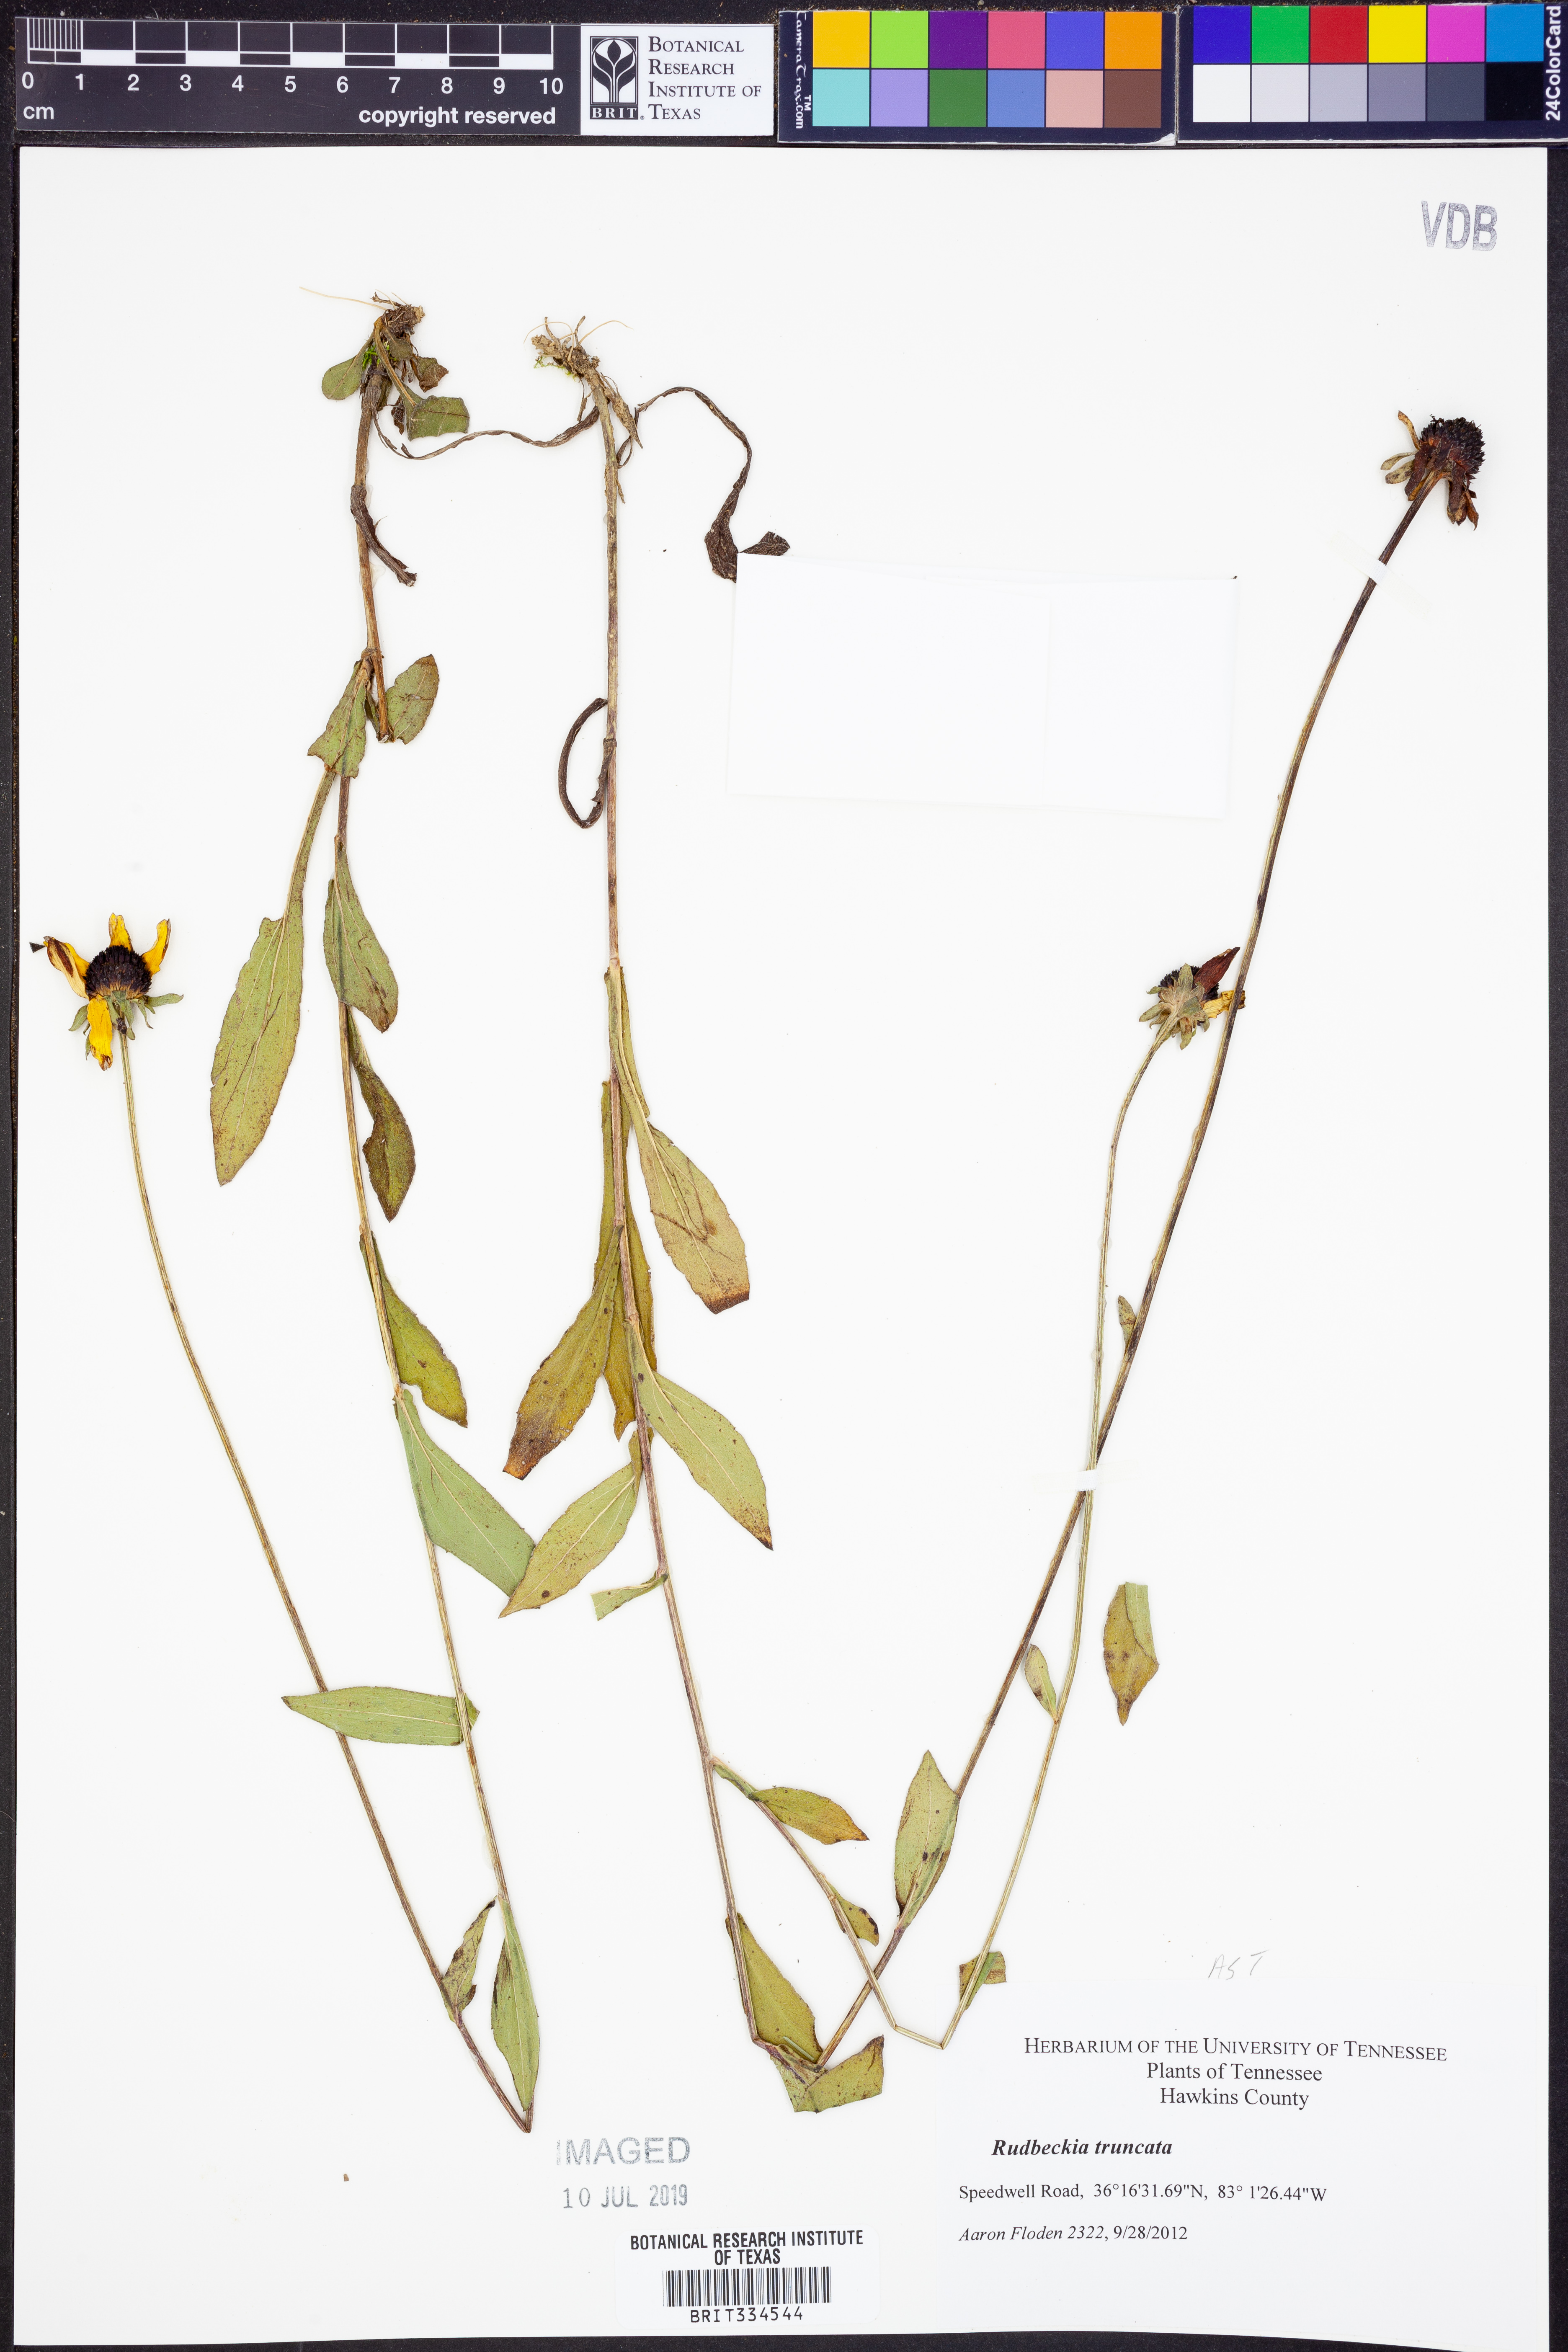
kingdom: Plantae
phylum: Tracheophyta
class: Magnoliopsida
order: Asterales
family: Asteraceae
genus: Rudbeckia
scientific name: Rudbeckia truncata
